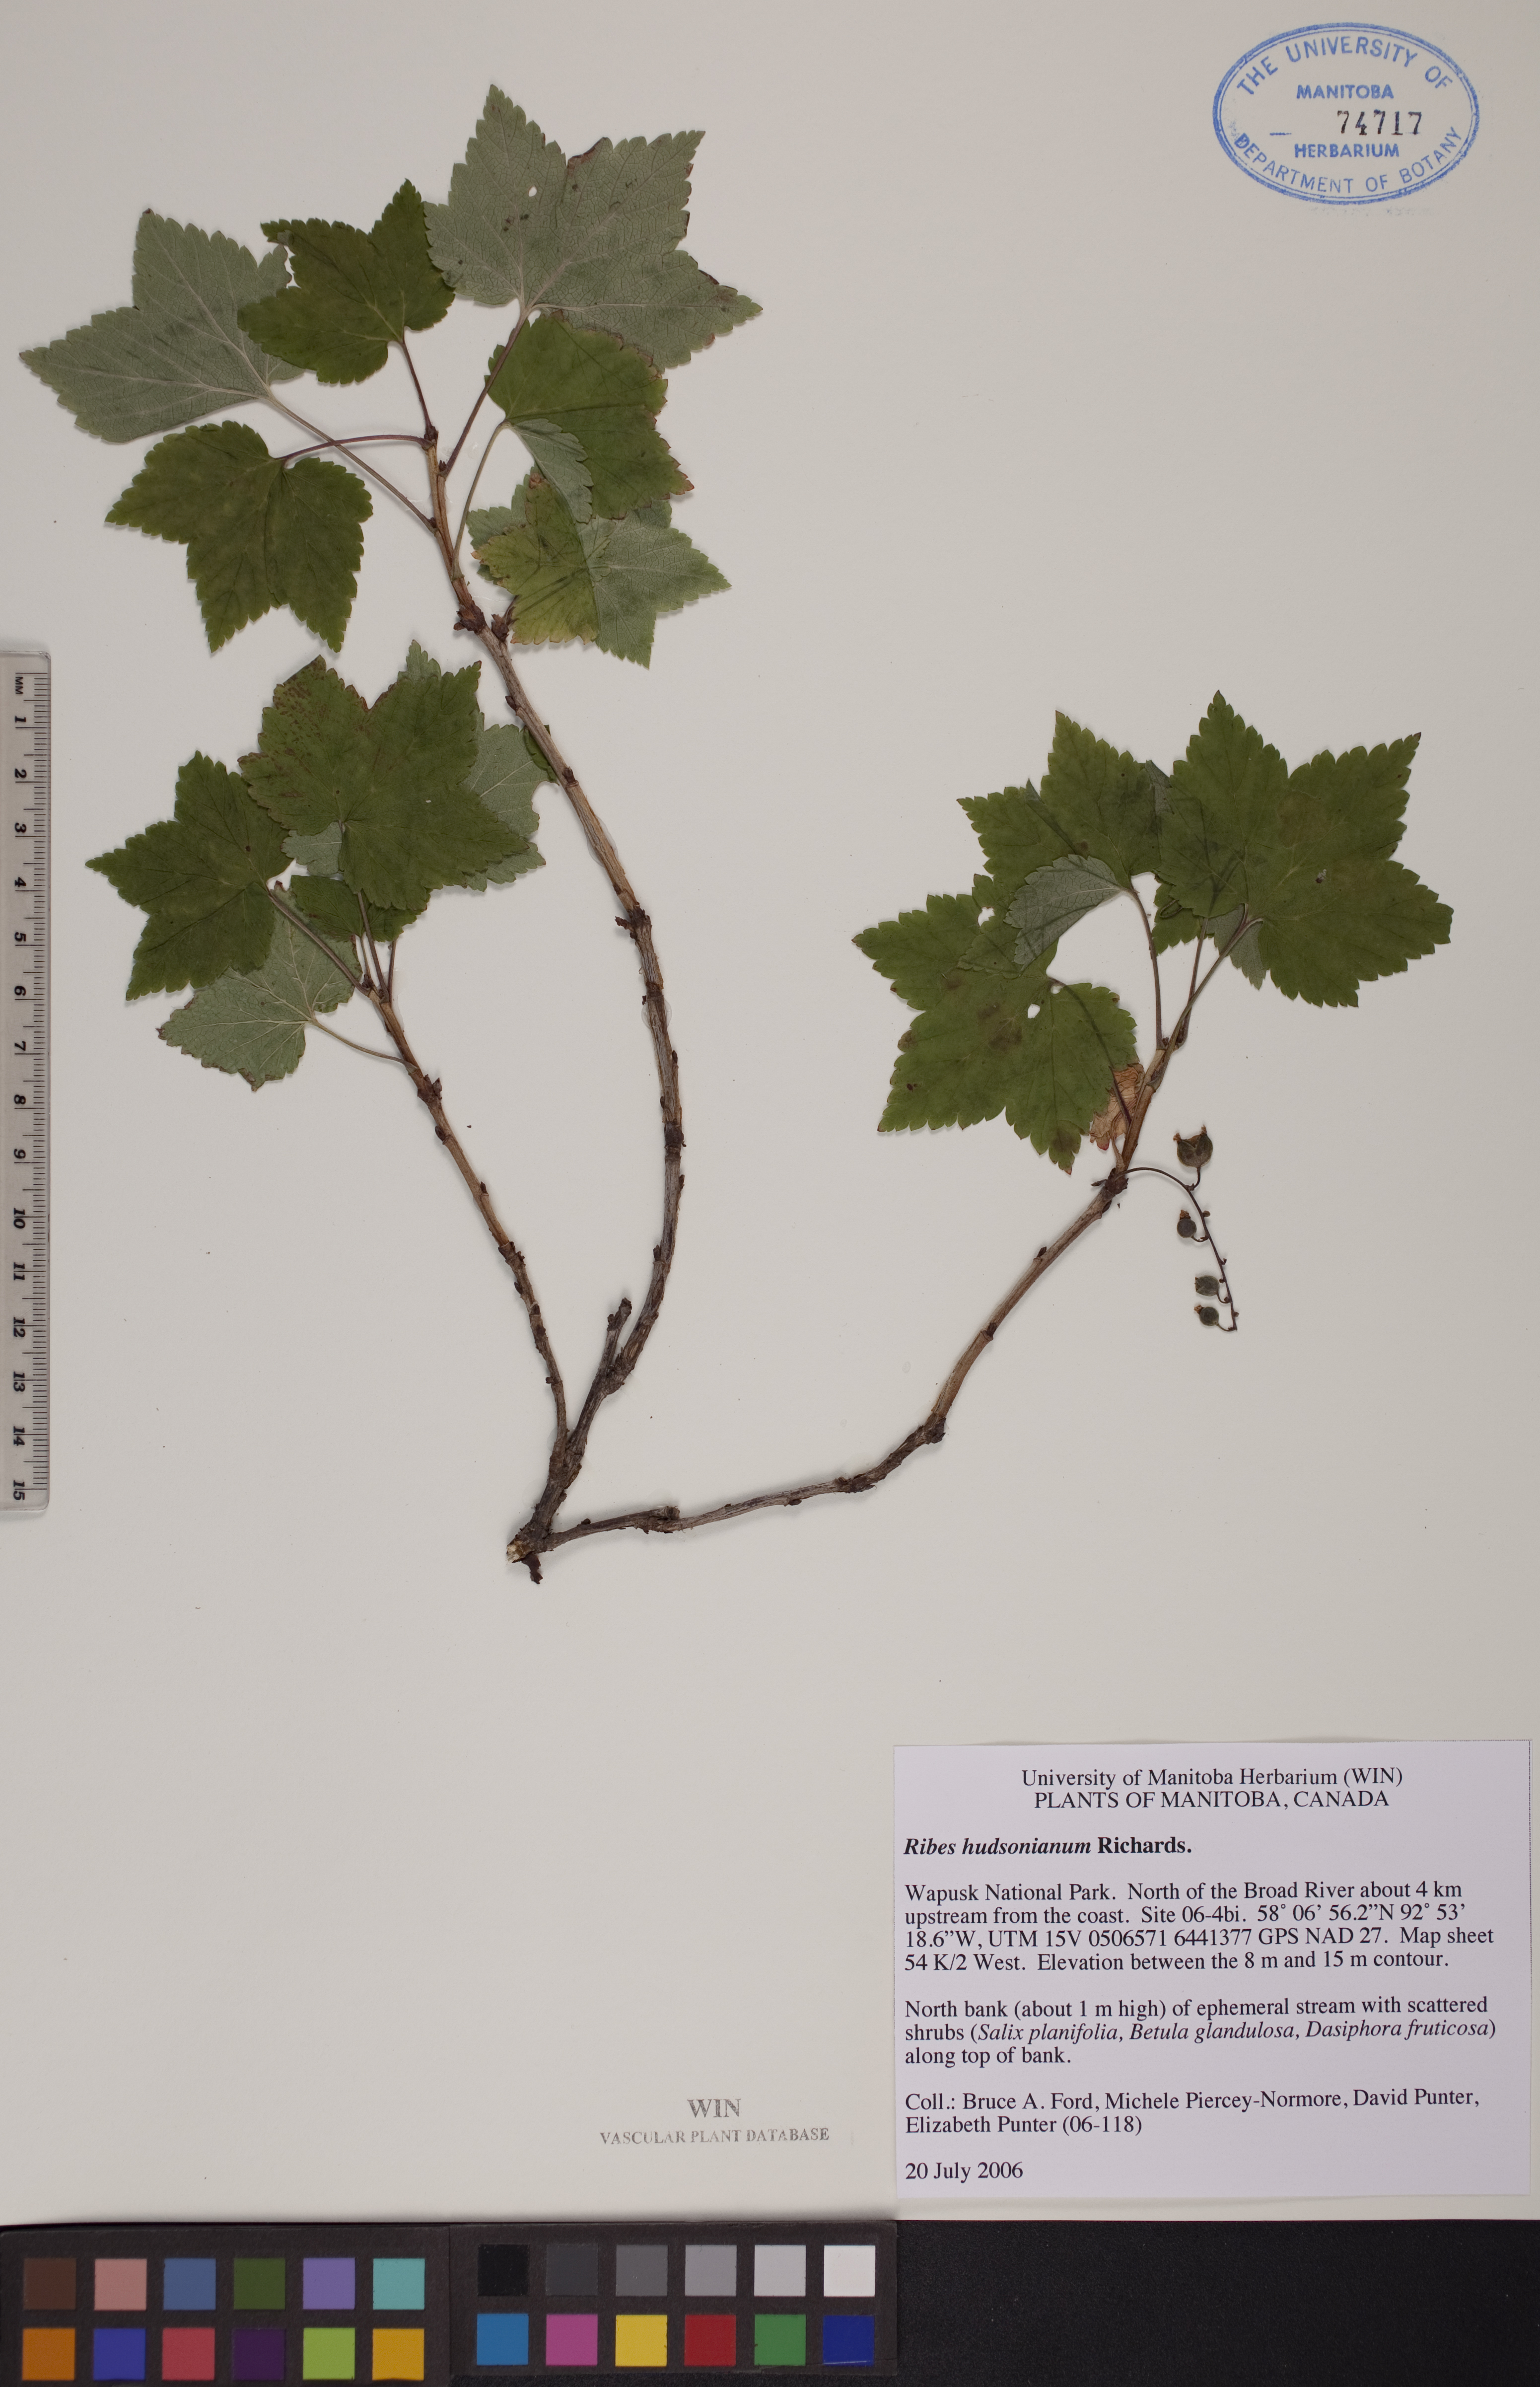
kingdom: Plantae
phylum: Tracheophyta
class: Magnoliopsida
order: Saxifragales
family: Grossulariaceae
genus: Ribes
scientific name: Ribes hudsonianum
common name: Northern black currant
